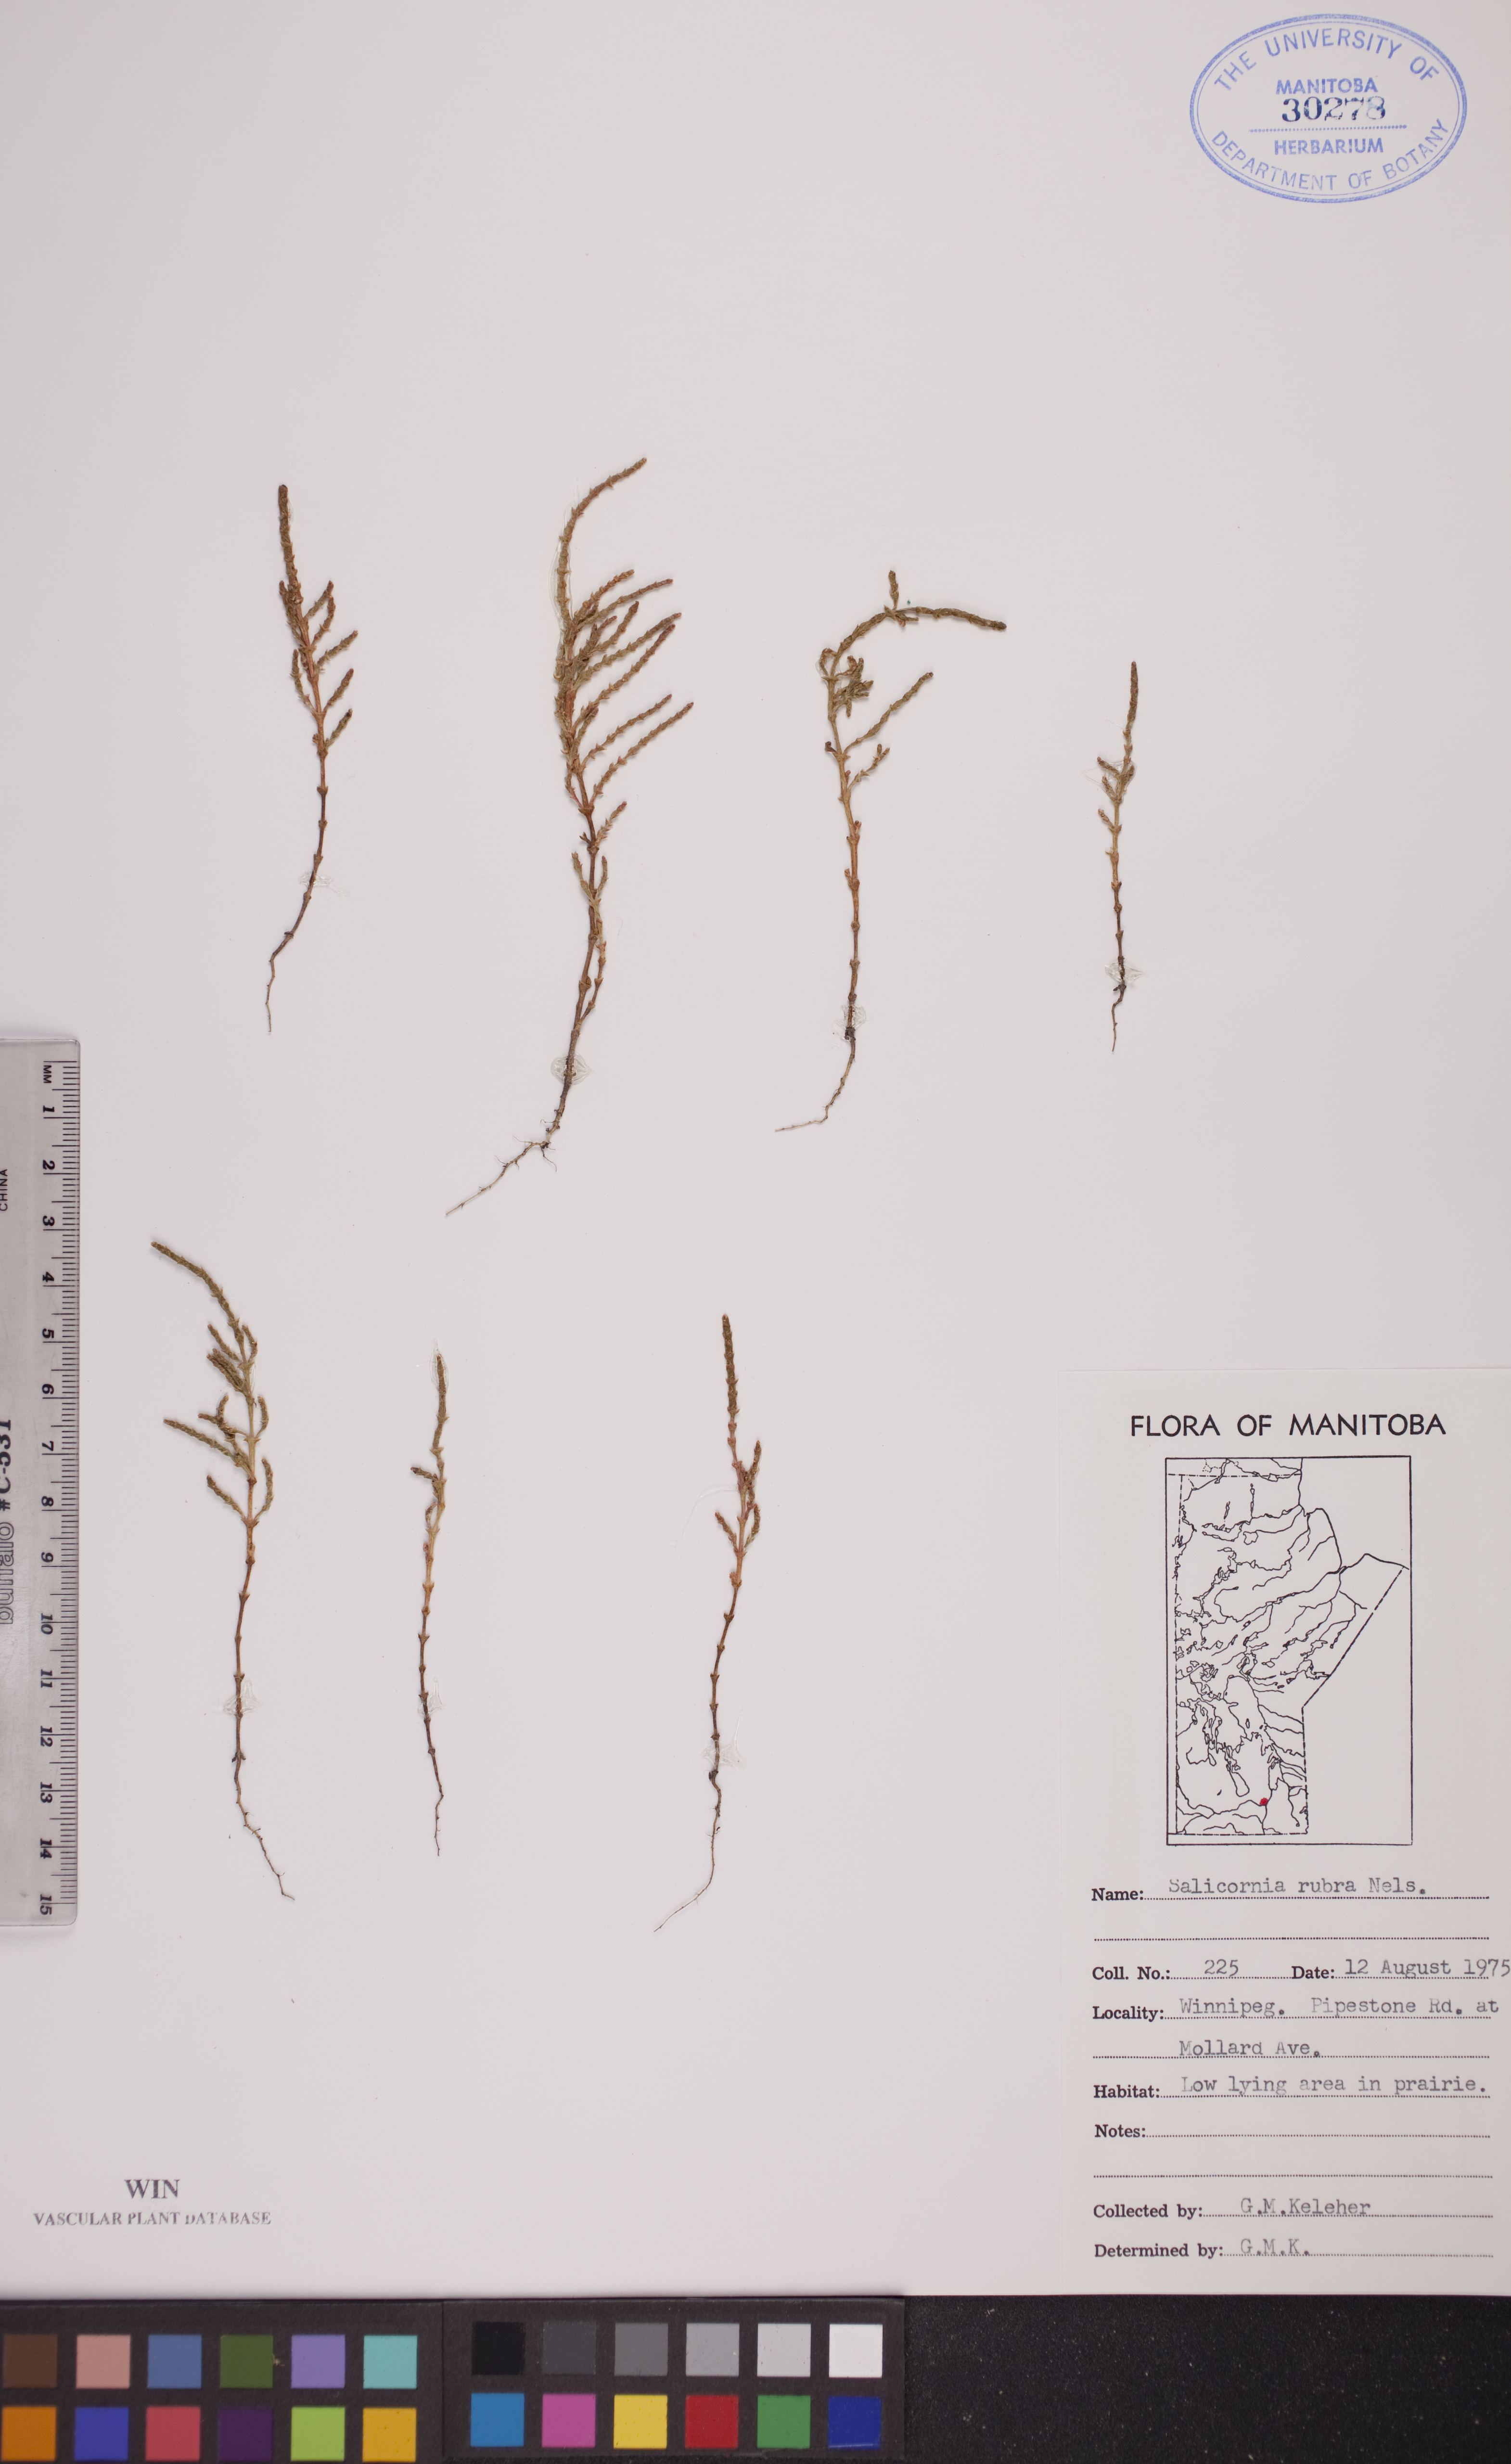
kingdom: Plantae
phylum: Tracheophyta
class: Magnoliopsida
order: Caryophyllales
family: Amaranthaceae
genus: Salicornia
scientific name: Salicornia rubra
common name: Red glasswort
